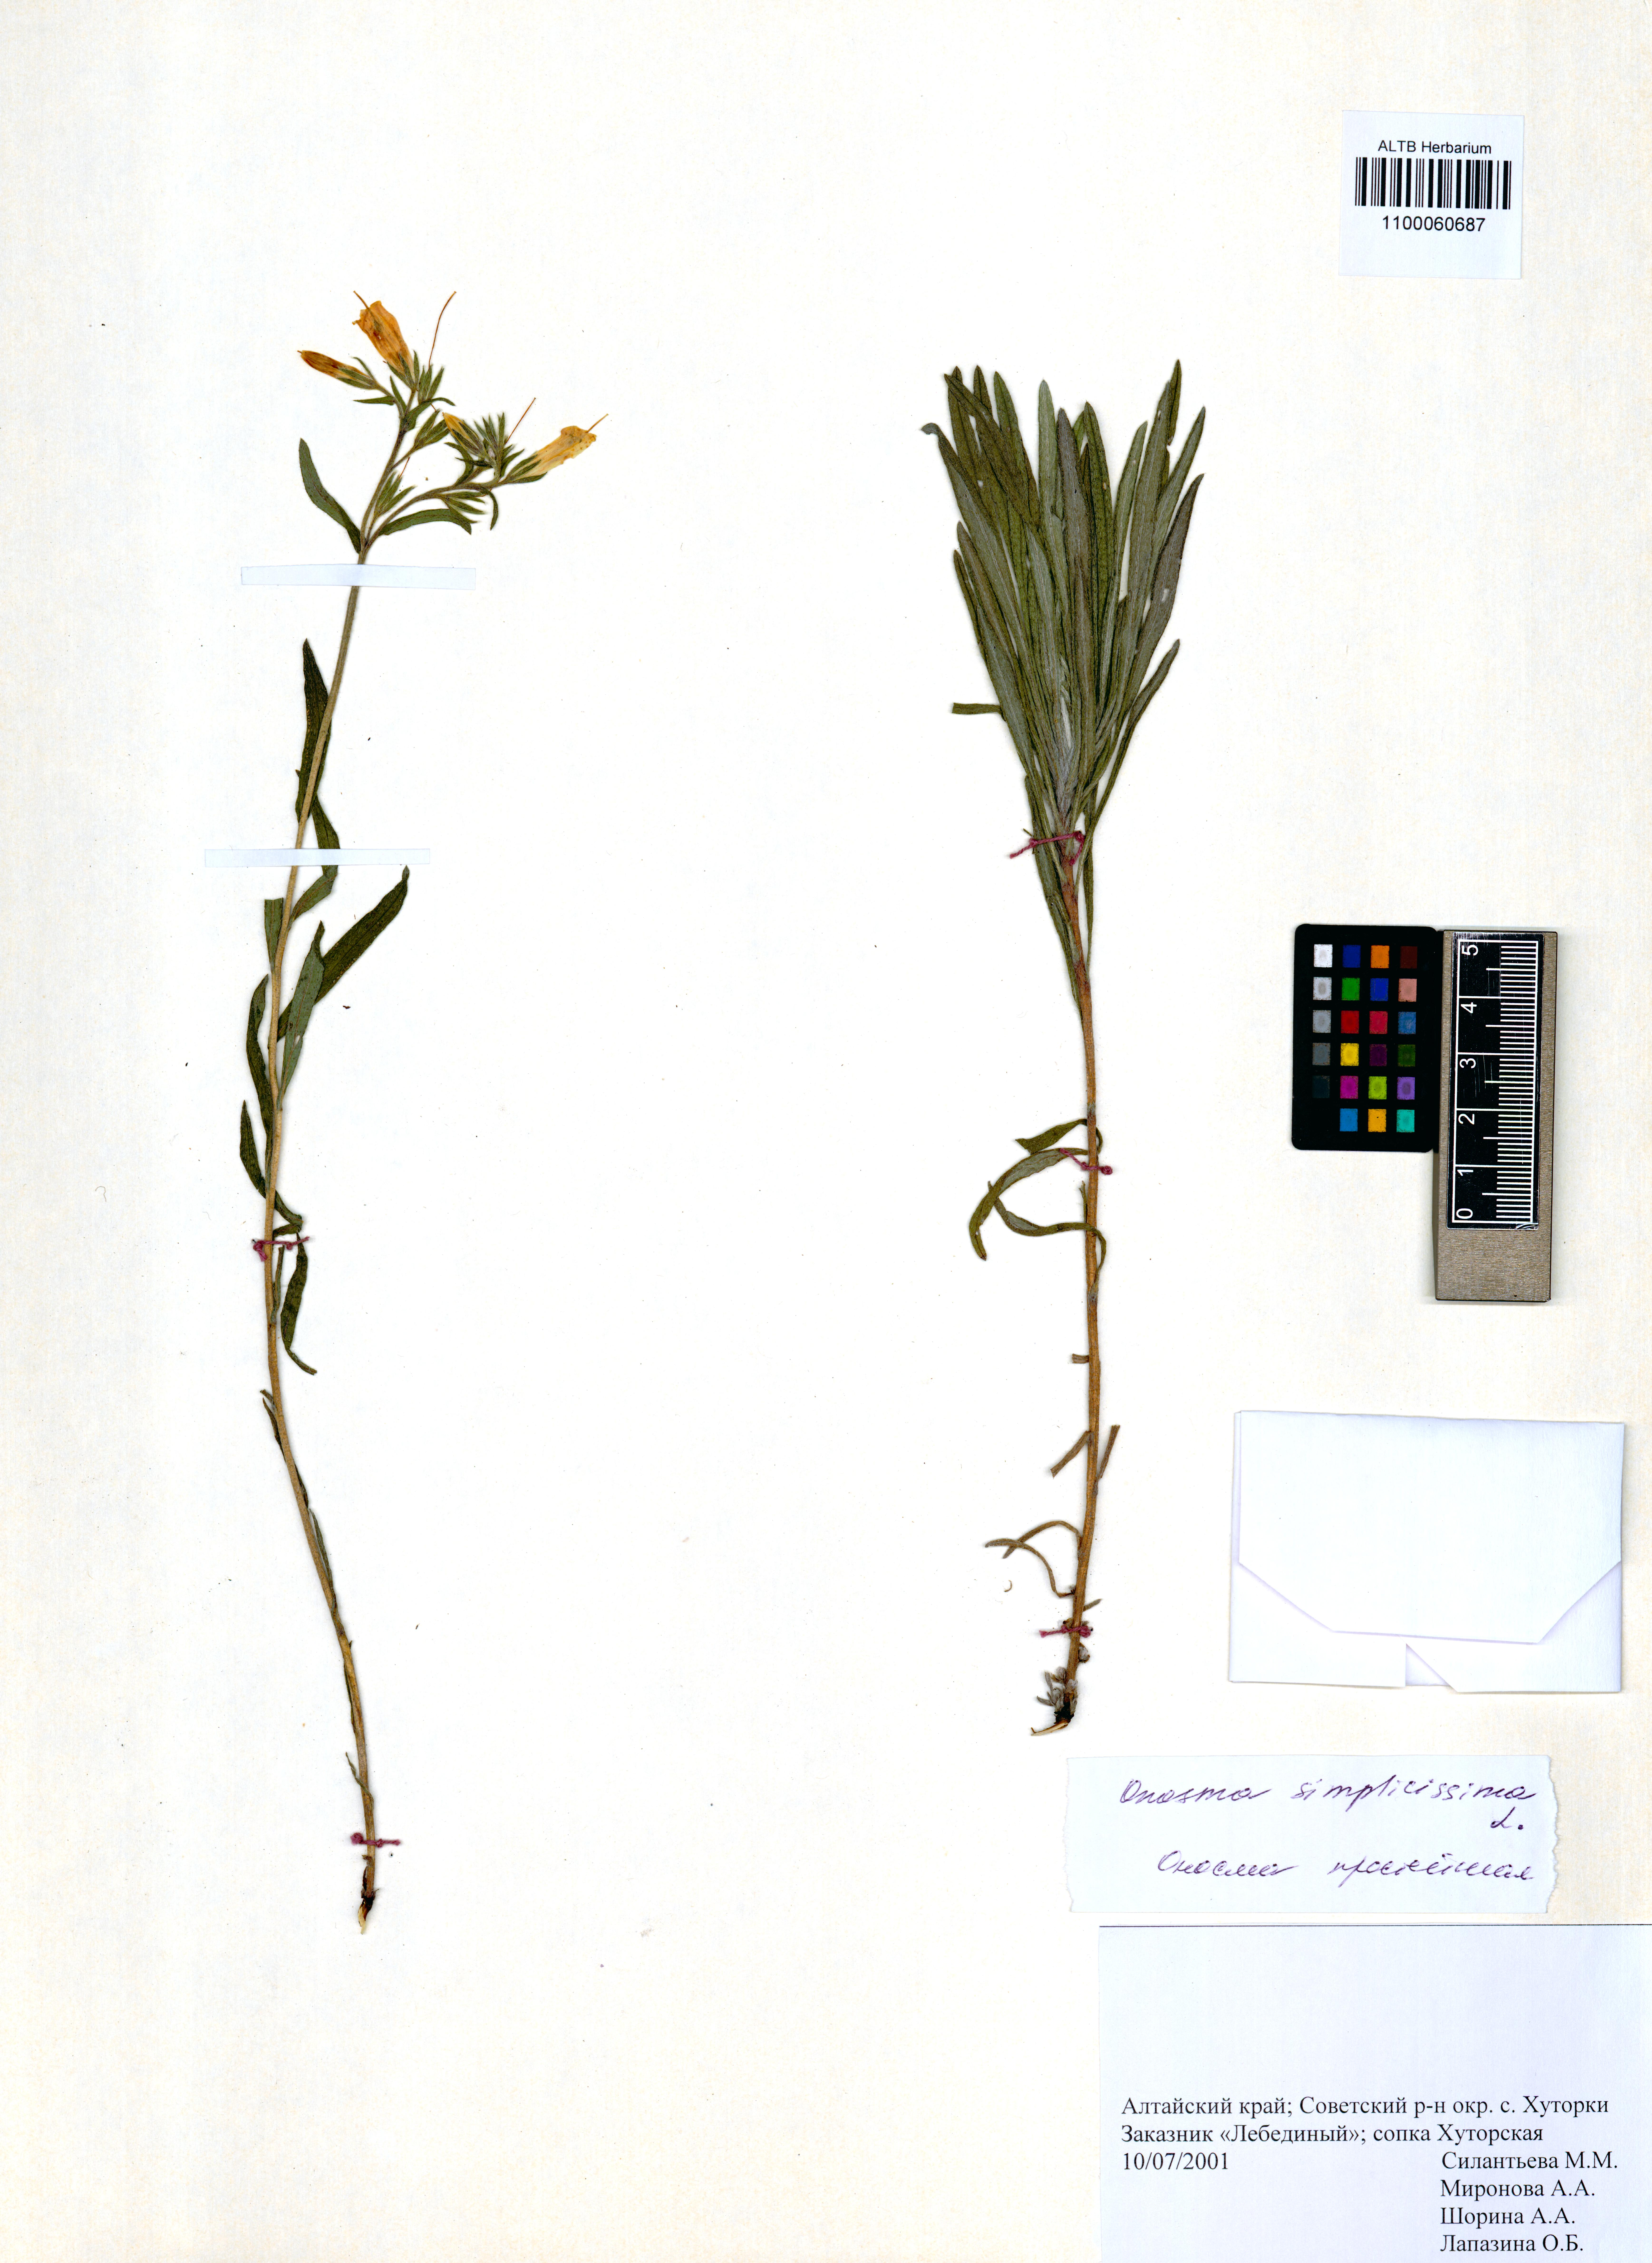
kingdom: Plantae
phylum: Tracheophyta
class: Magnoliopsida
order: Boraginales
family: Boraginaceae
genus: Onosma
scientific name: Onosma simplicissima
